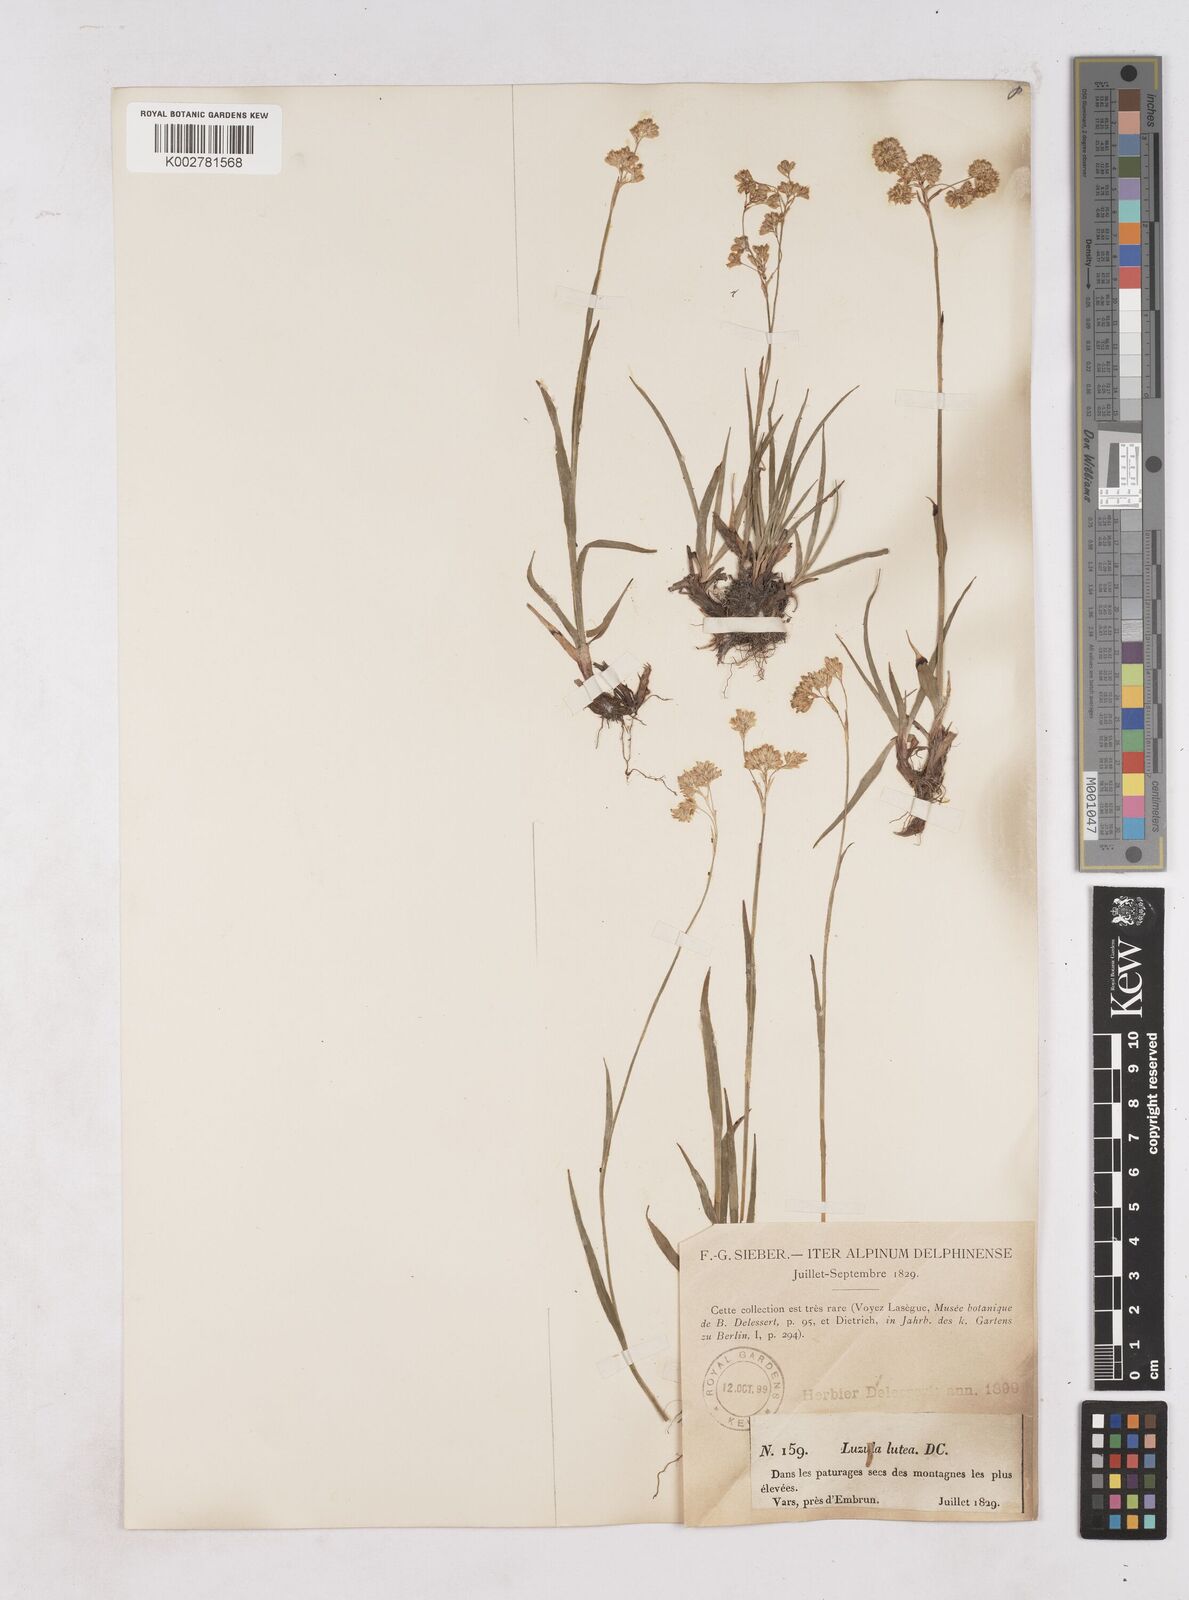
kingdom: Plantae
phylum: Tracheophyta
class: Liliopsida
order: Poales
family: Juncaceae
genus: Luzula
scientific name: Luzula lutea
